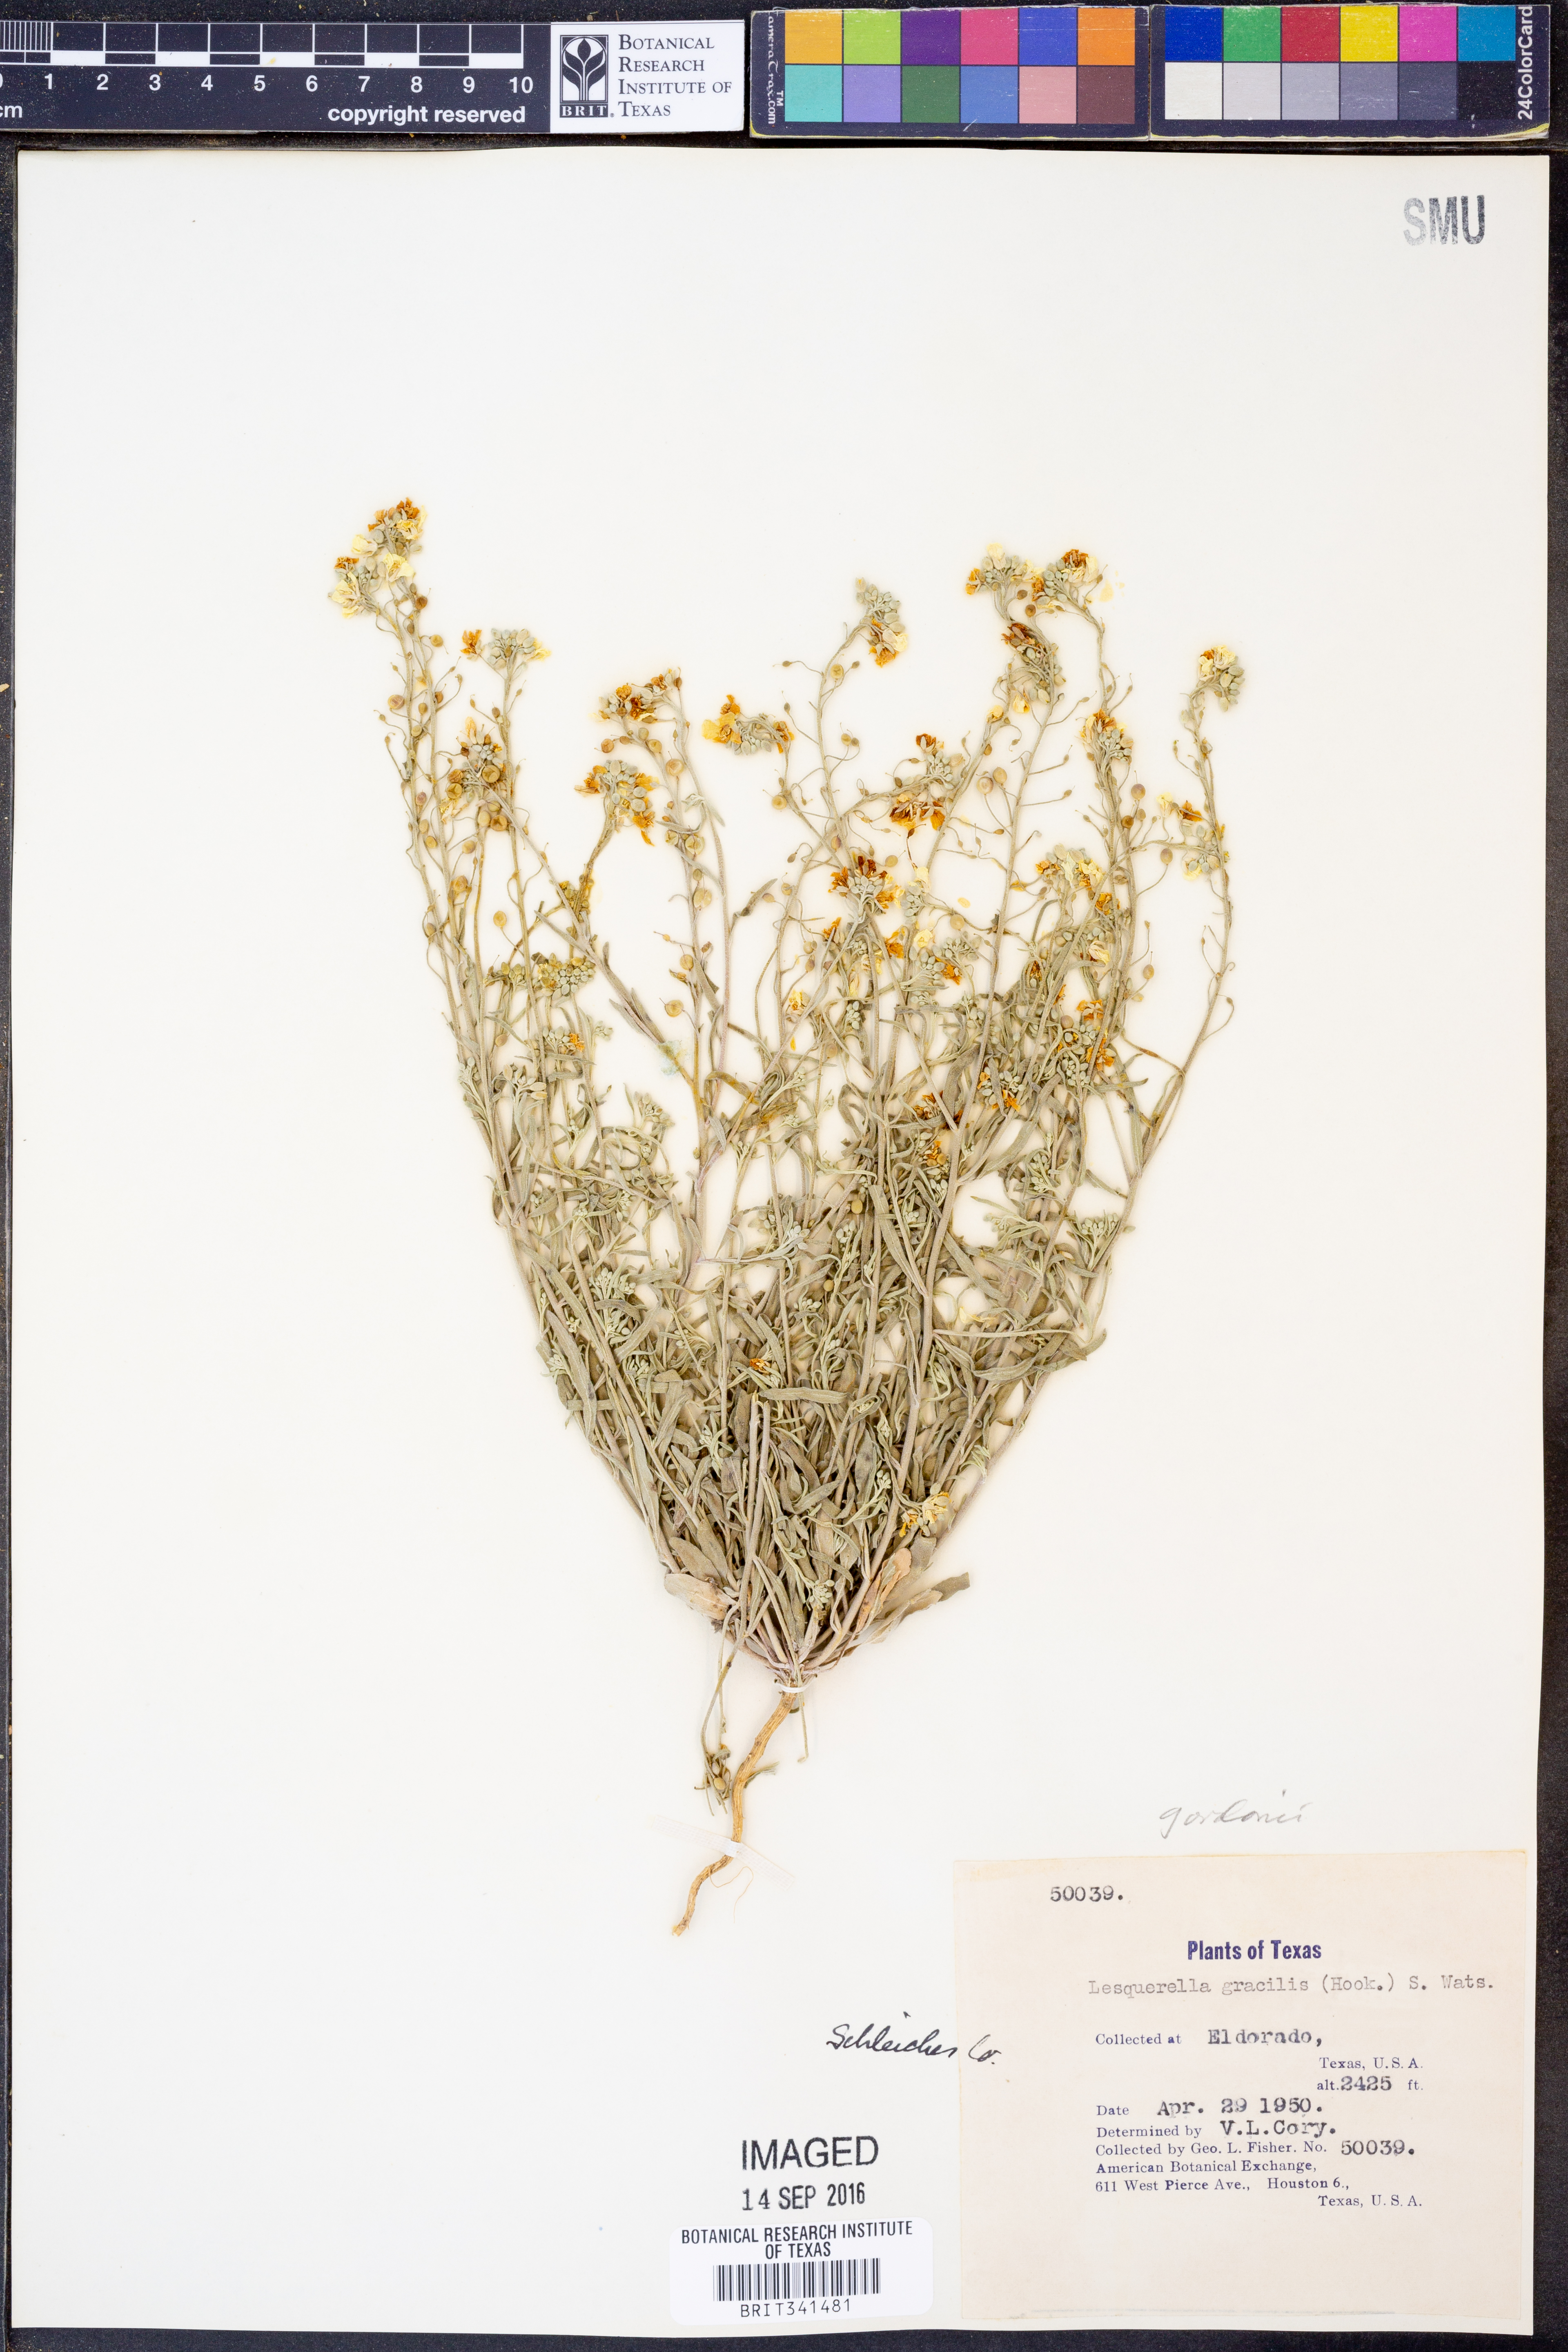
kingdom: Plantae
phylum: Tracheophyta
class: Magnoliopsida
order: Brassicales
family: Brassicaceae
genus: Physaria
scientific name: Physaria gordonii
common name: Gordon's bladderpod
